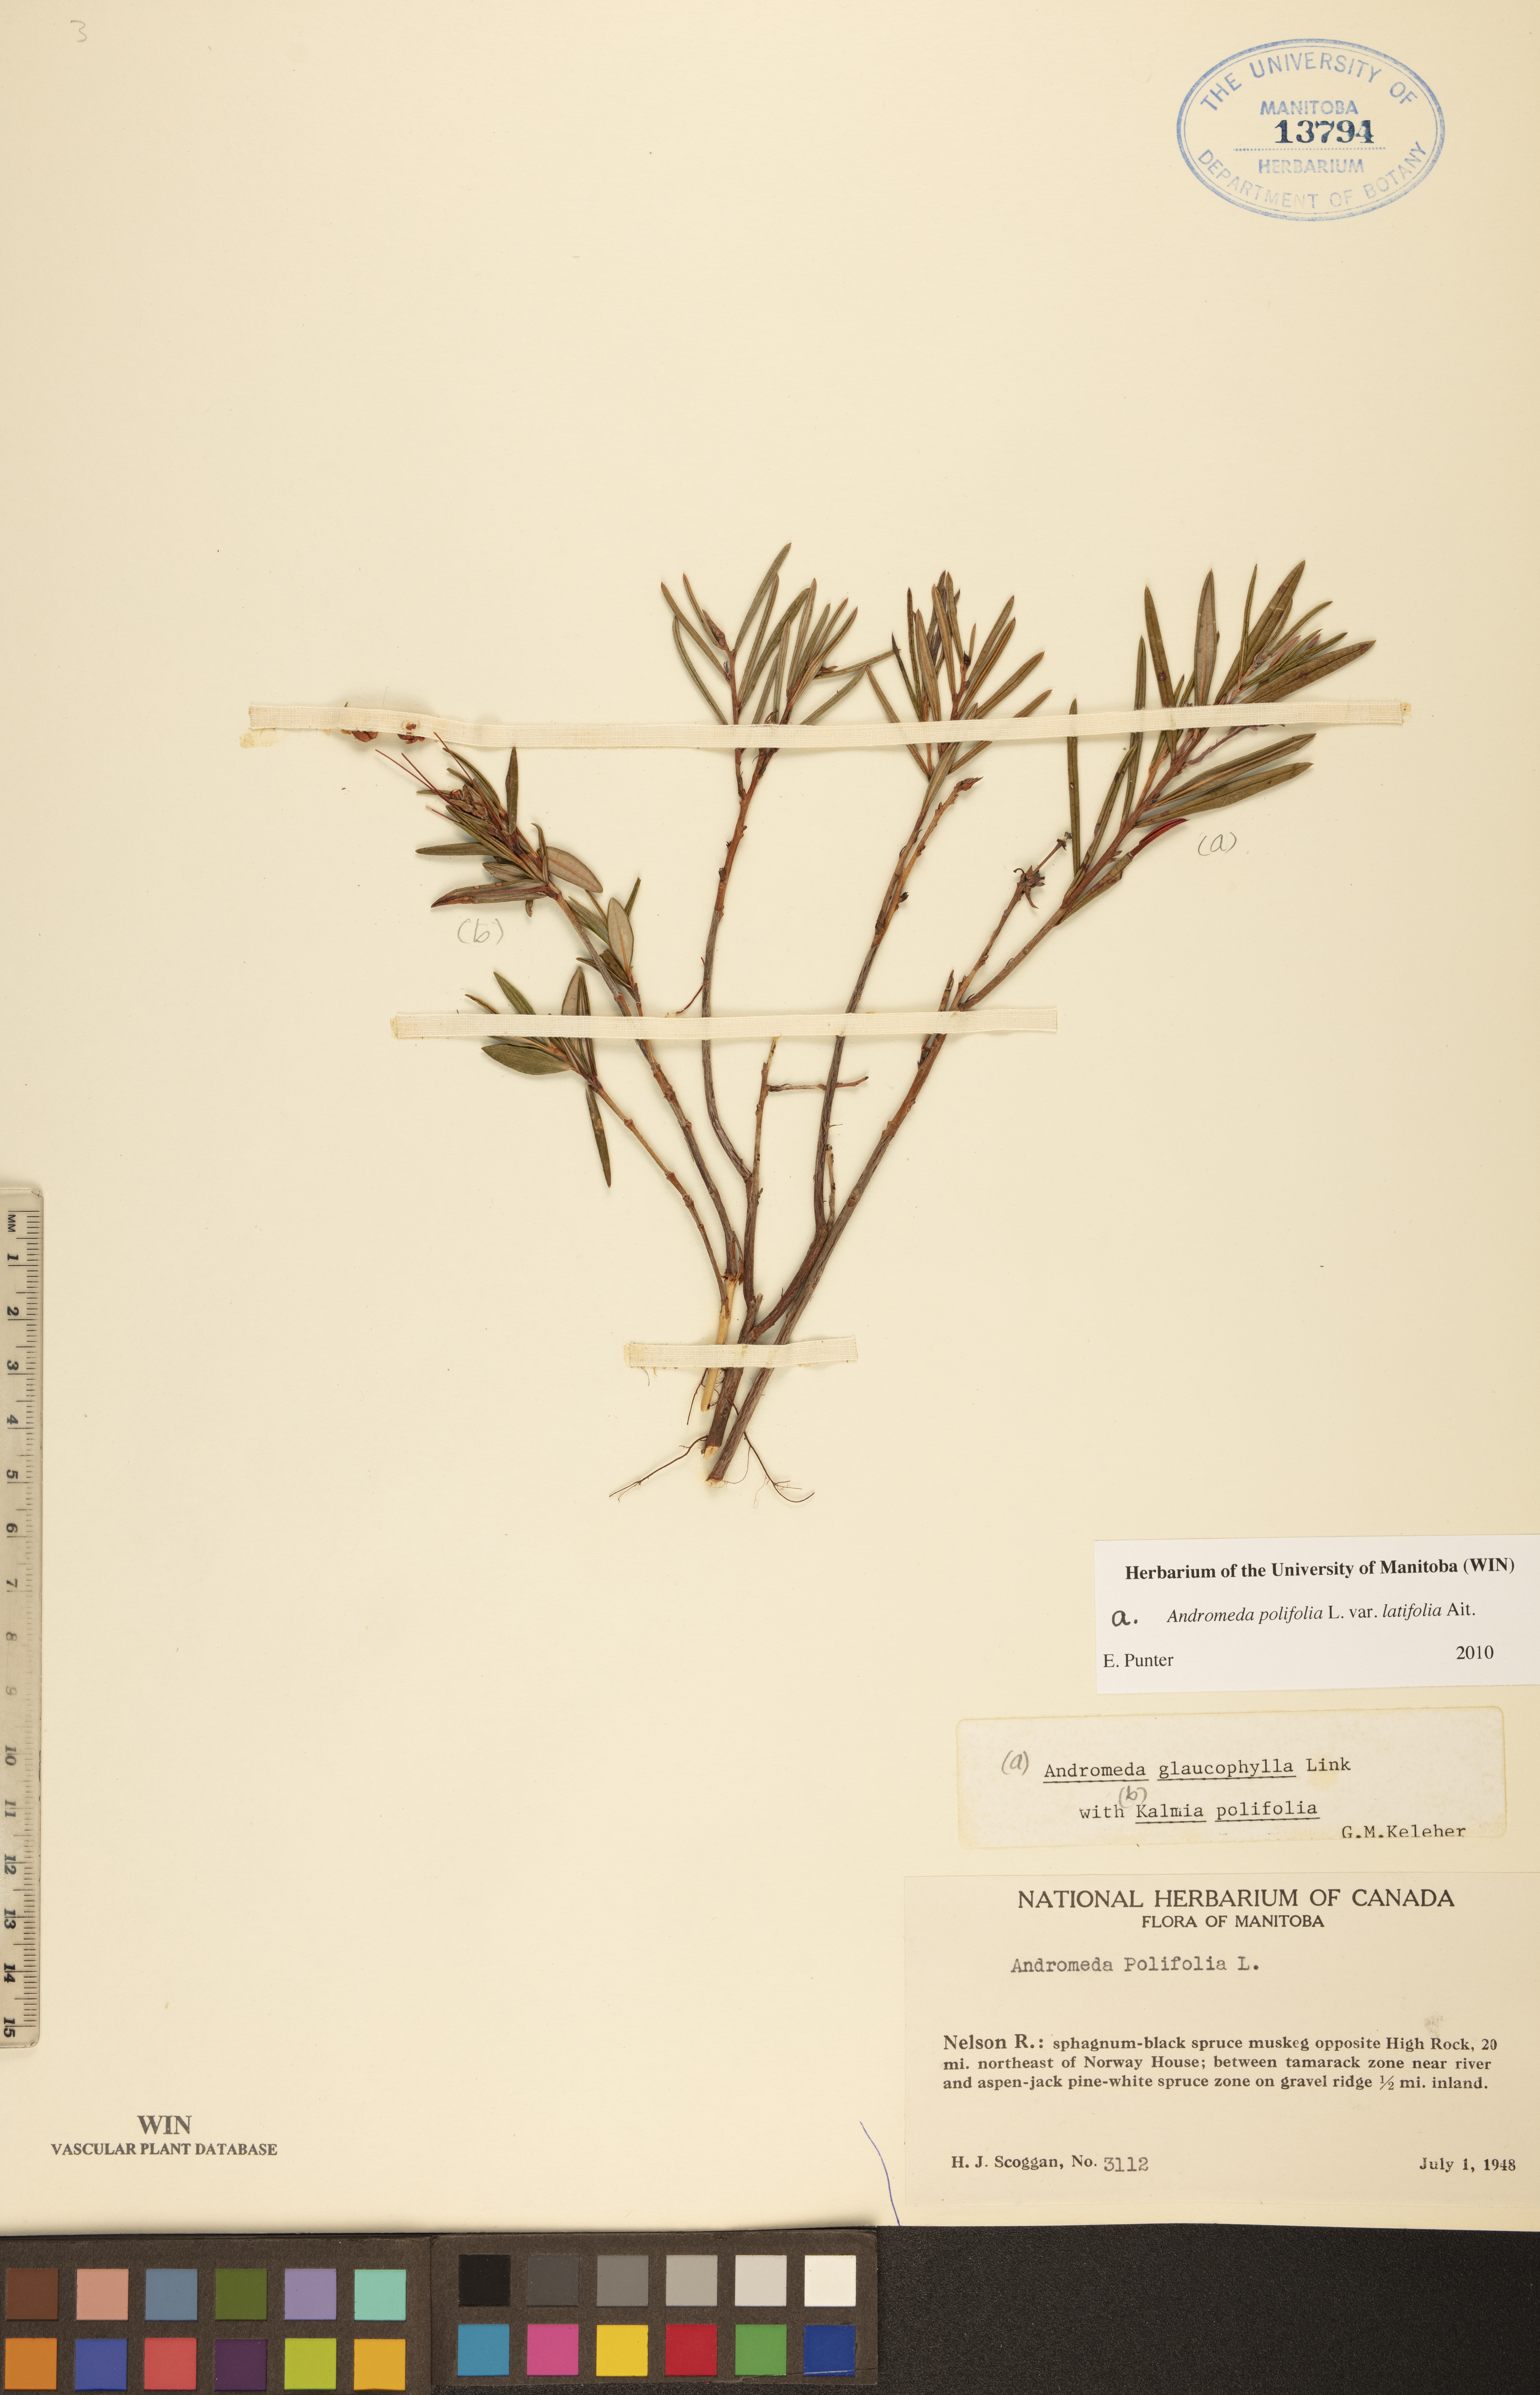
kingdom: Plantae
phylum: Tracheophyta
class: Magnoliopsida
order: Ericales
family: Ericaceae
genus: Andromeda
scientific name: Andromeda polifolia
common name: Bog-rosemary
